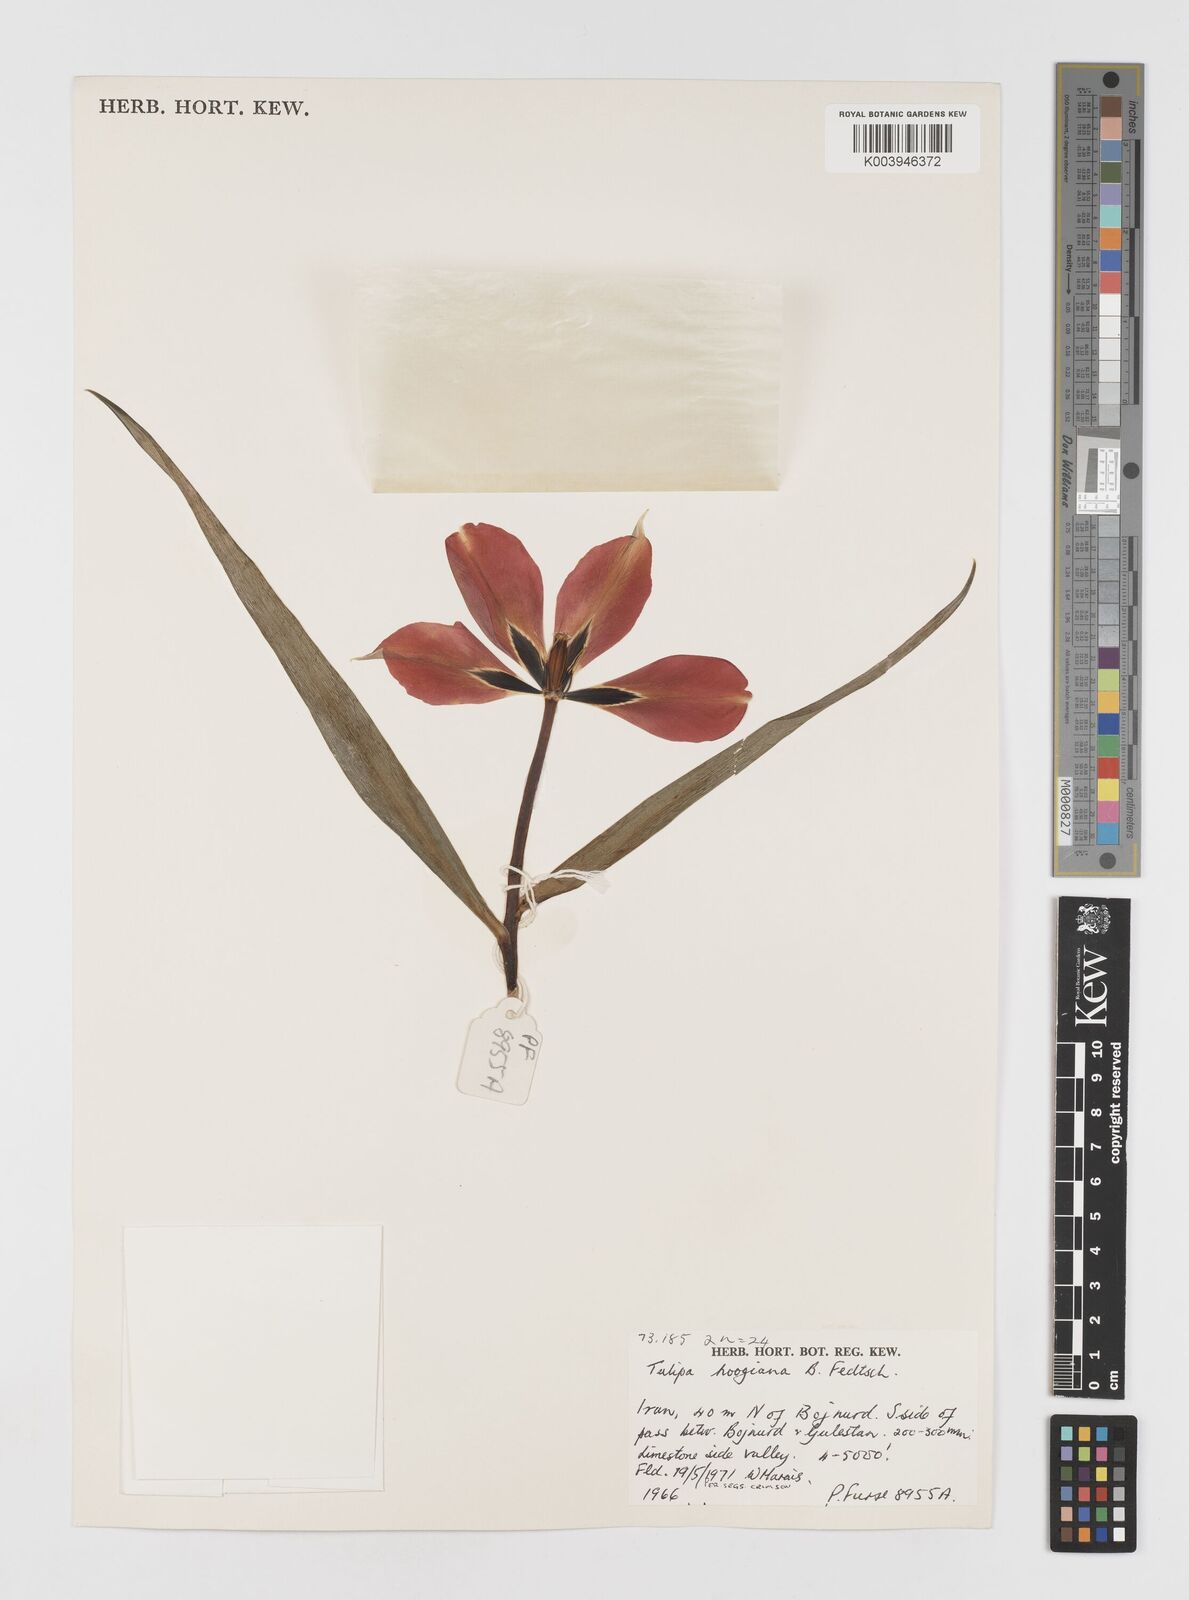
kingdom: Plantae
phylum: Tracheophyta
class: Liliopsida
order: Liliales
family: Liliaceae
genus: Tulipa
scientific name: Tulipa hoogiana
